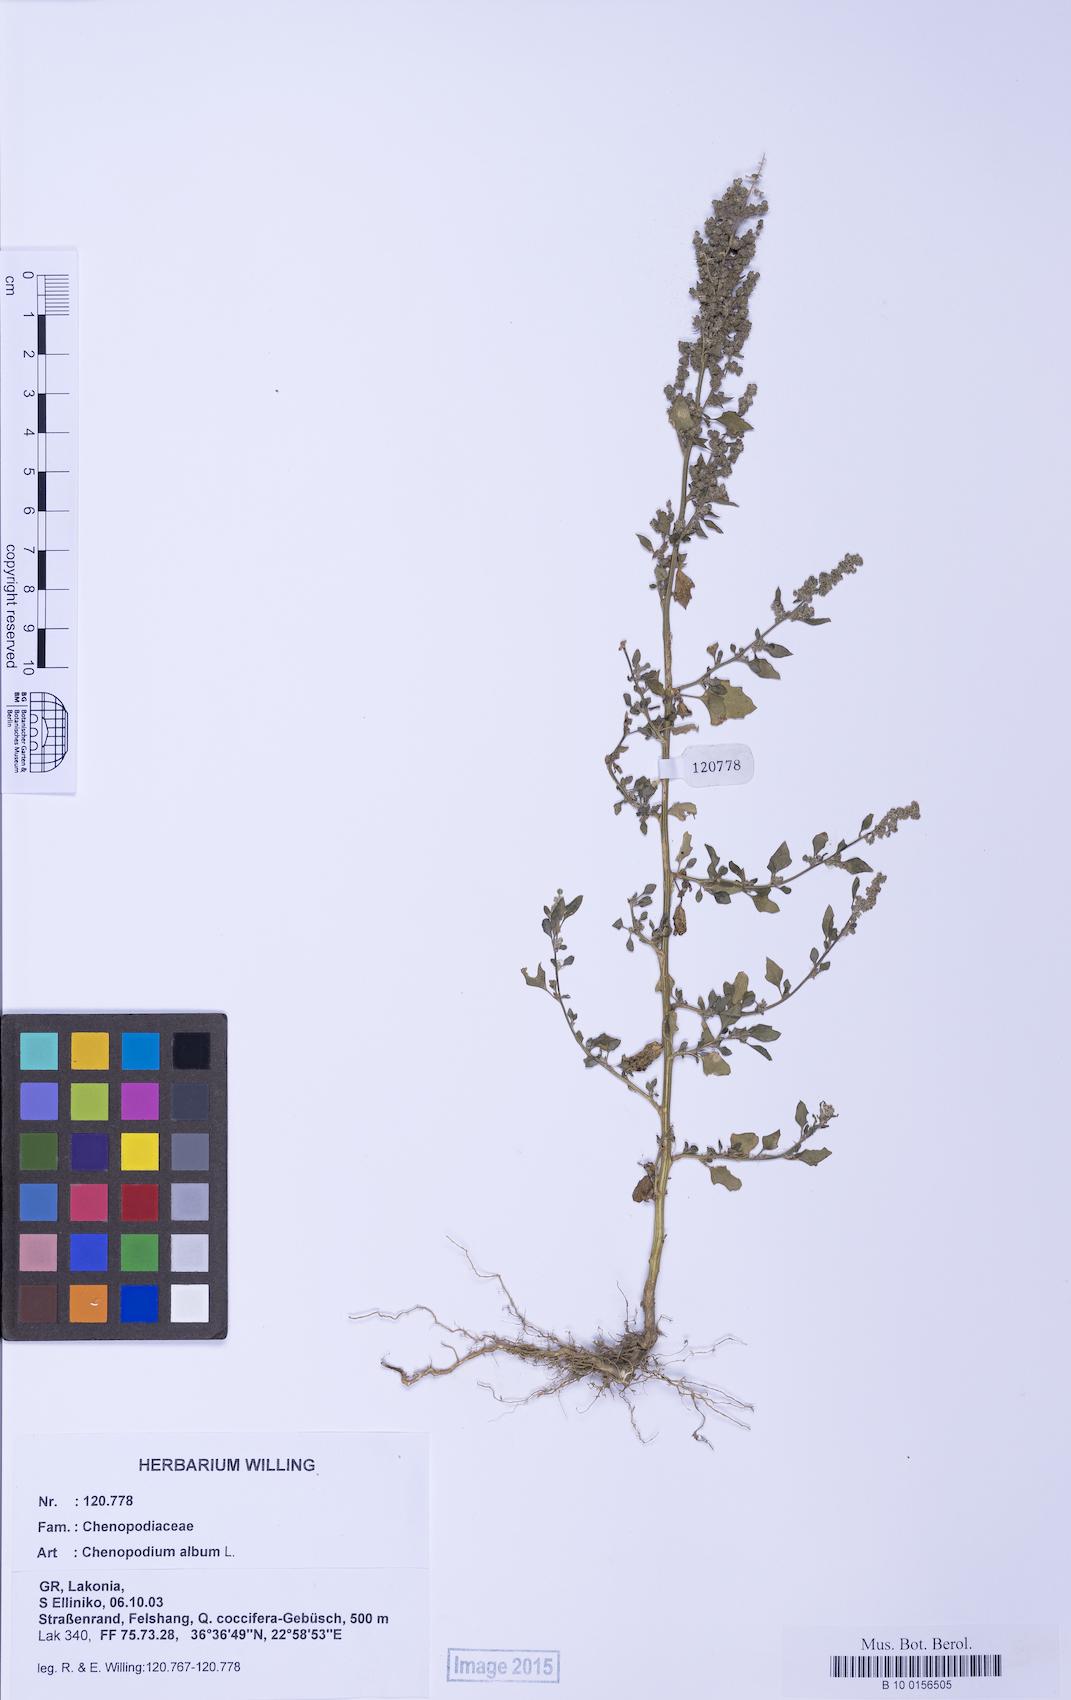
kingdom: Plantae
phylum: Tracheophyta
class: Magnoliopsida
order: Caryophyllales
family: Amaranthaceae
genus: Chenopodium
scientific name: Chenopodium album
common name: Fat-hen
